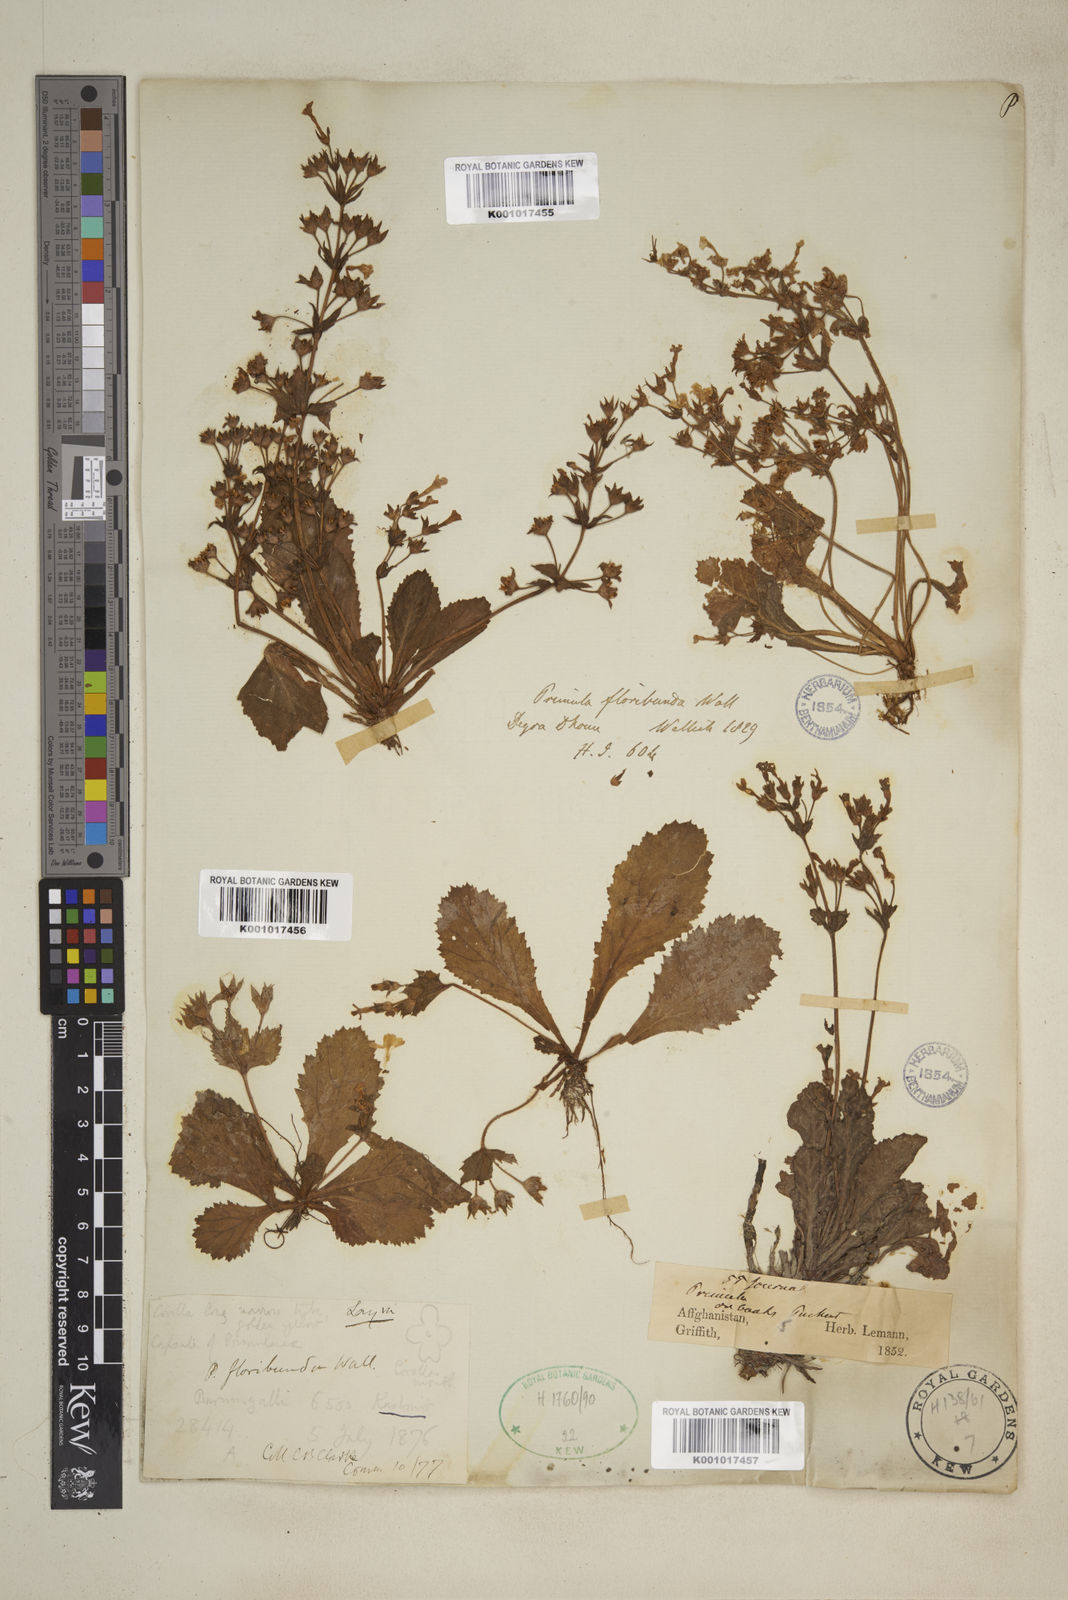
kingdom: Plantae
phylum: Tracheophyta
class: Magnoliopsida
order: Ericales
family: Primulaceae
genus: Evotrochis
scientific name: Evotrochis floribunda
